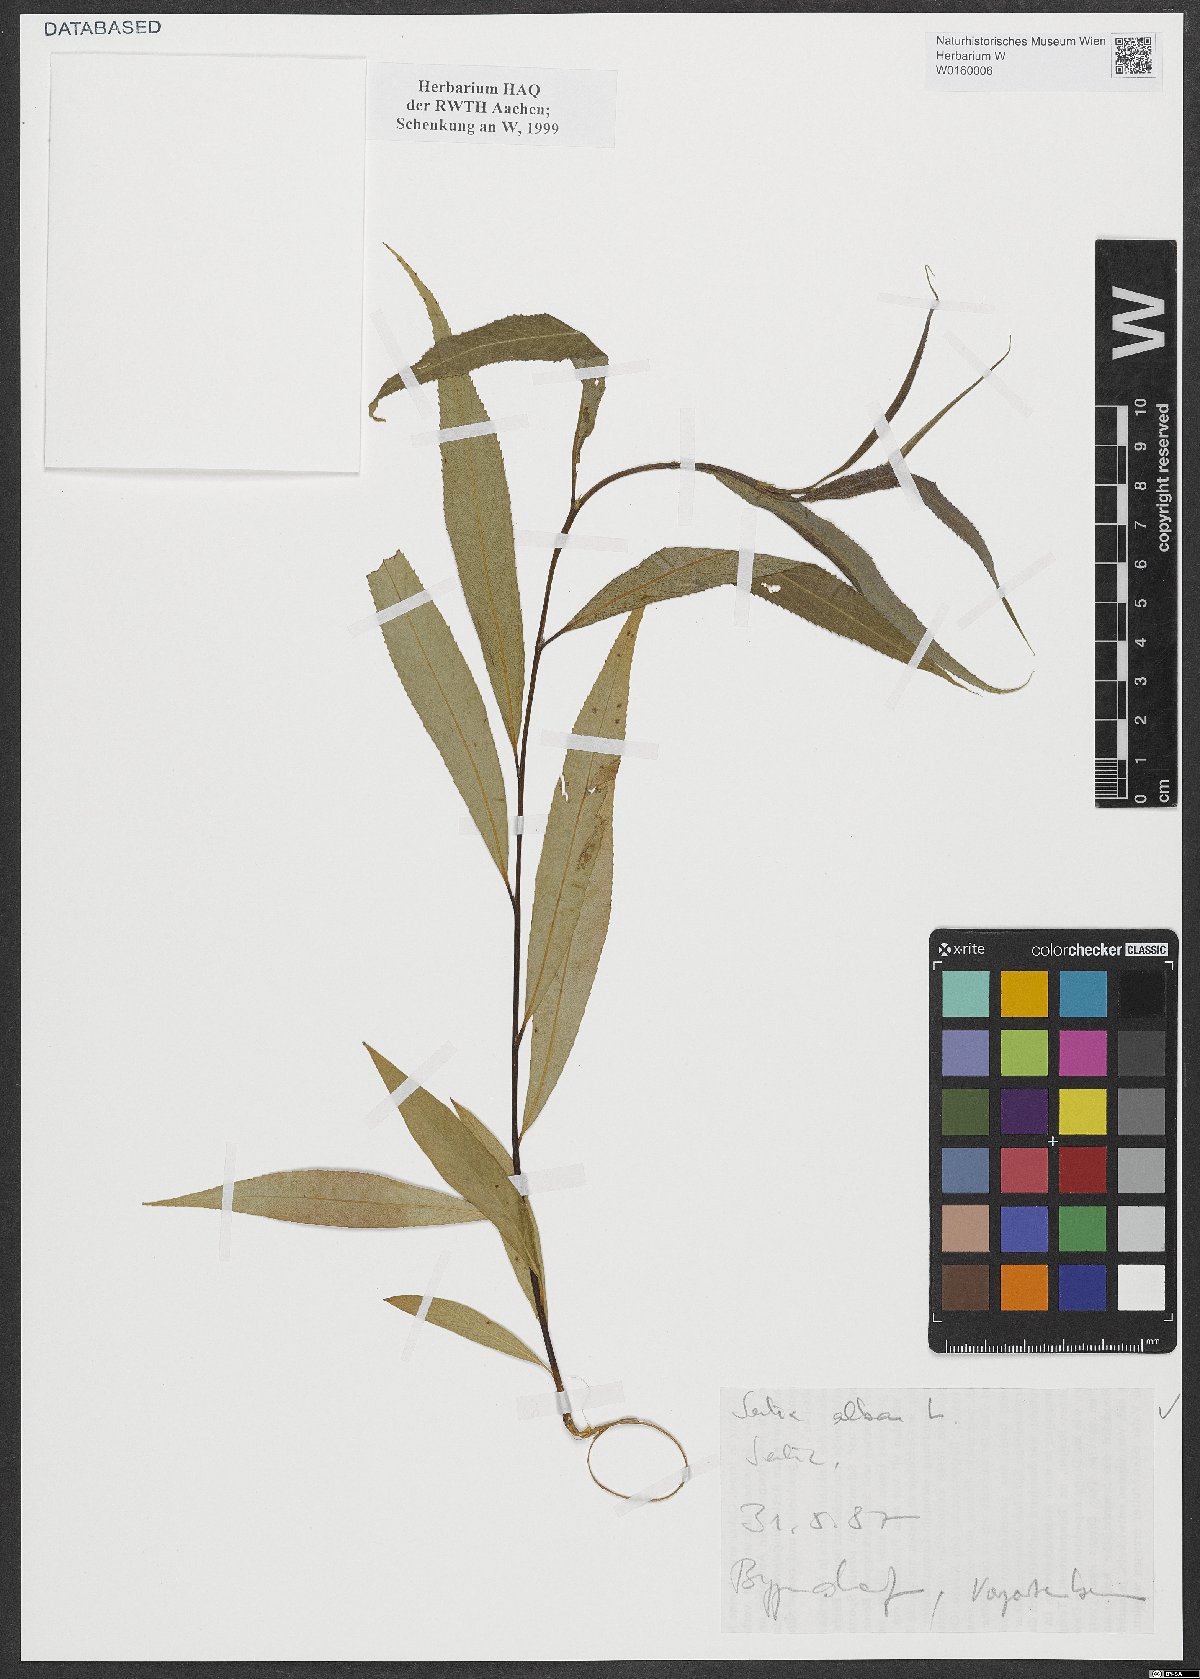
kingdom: Plantae
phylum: Tracheophyta
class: Magnoliopsida
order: Malpighiales
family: Salicaceae
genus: Salix
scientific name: Salix alba
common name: White willow
